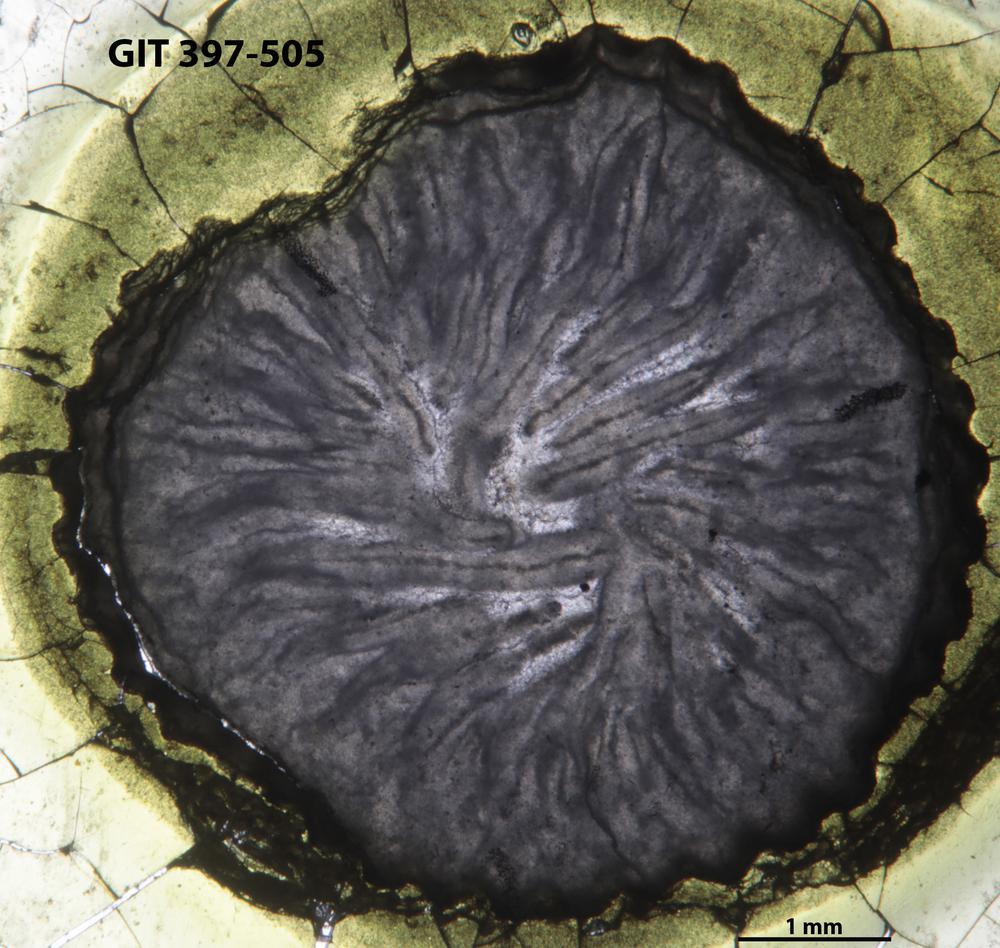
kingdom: Animalia
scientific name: Animalia
